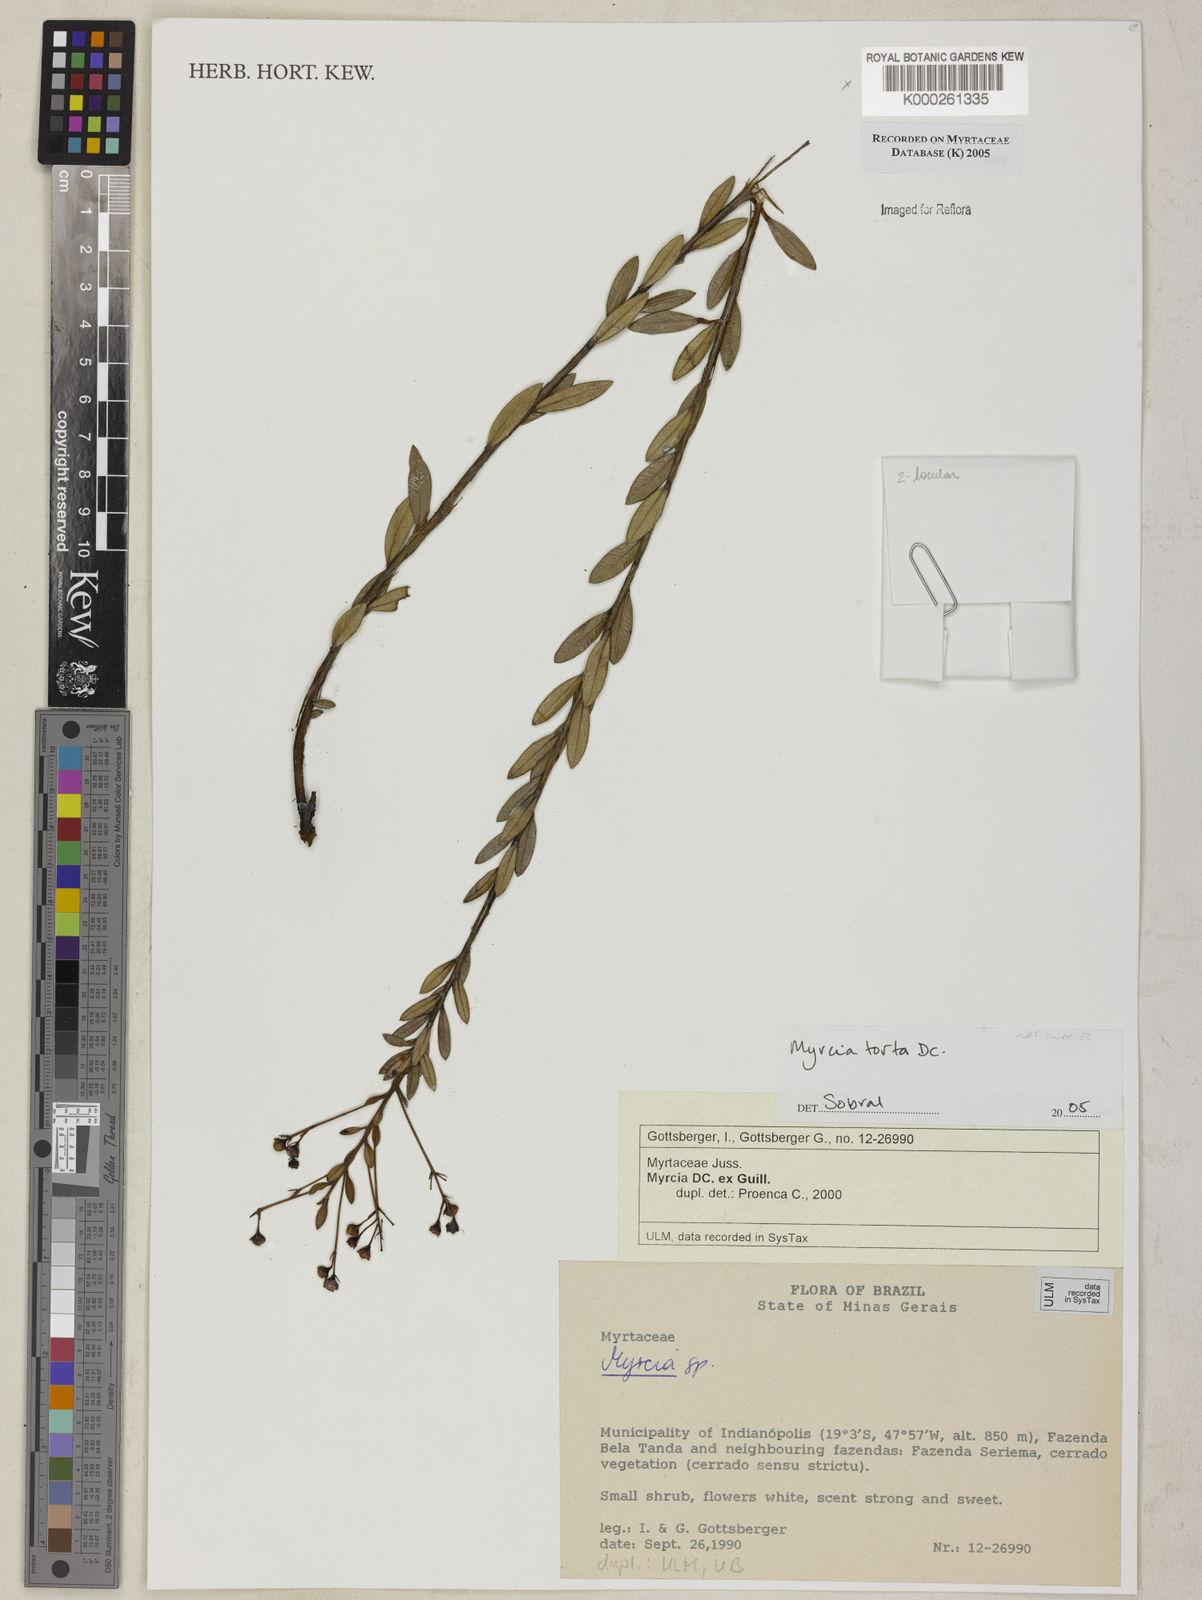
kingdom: Plantae
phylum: Tracheophyta
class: Magnoliopsida
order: Myrtales
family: Myrtaceae
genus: Myrcia
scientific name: Myrcia guianensis
